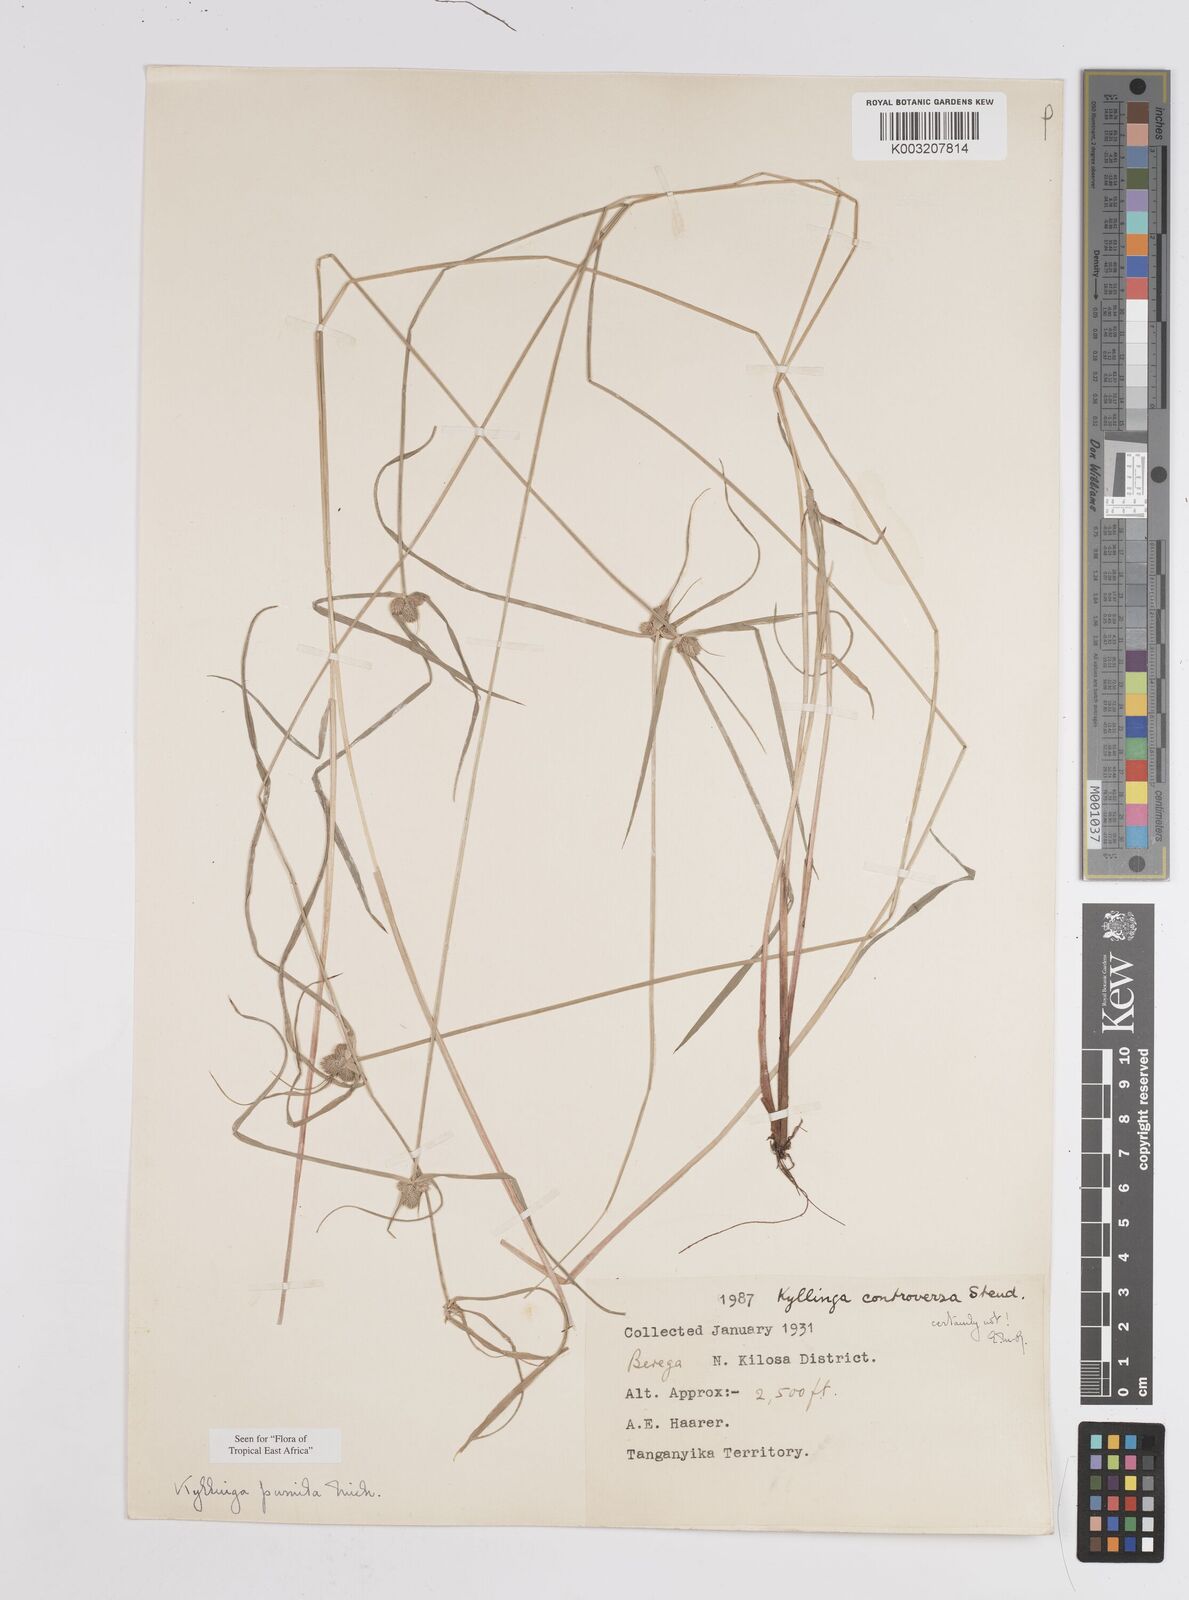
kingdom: Plantae
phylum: Tracheophyta
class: Liliopsida
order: Poales
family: Cyperaceae
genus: Cyperus
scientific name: Cyperus hortensis
